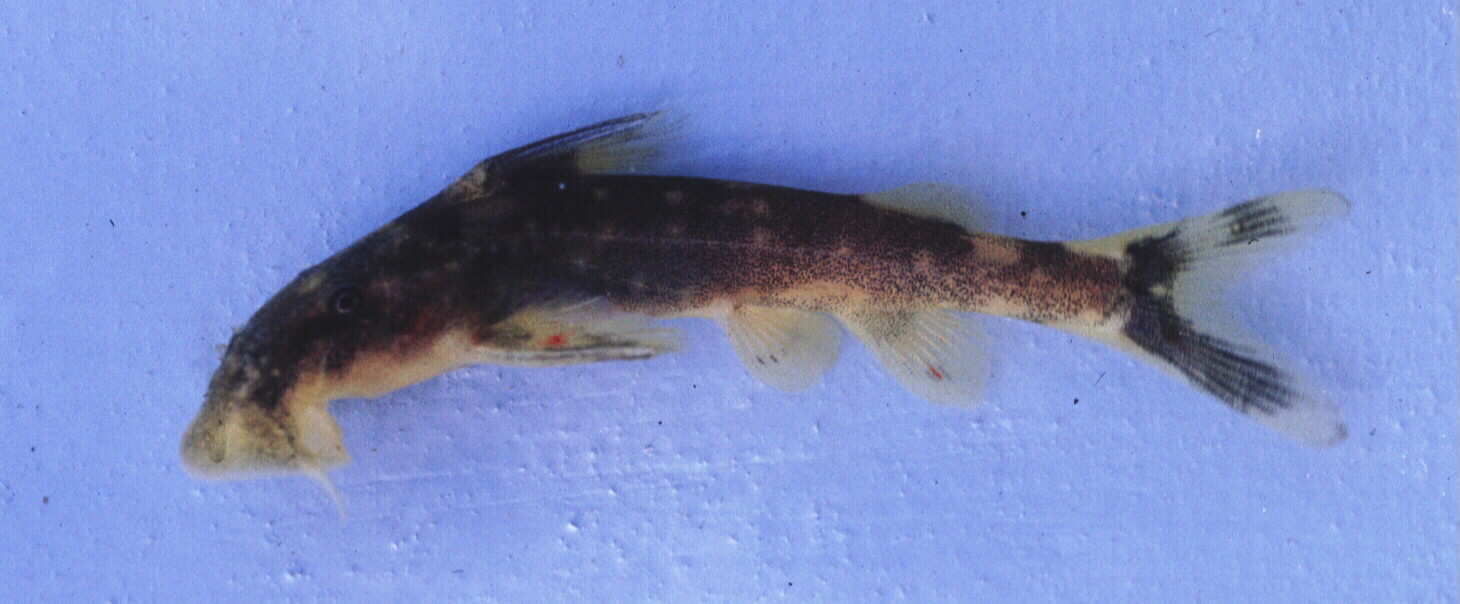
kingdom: Animalia
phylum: Chordata
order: Siluriformes
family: Mochokidae
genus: Chiloglanis
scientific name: Chiloglanis neumanni
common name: Neumann's rock catlet
